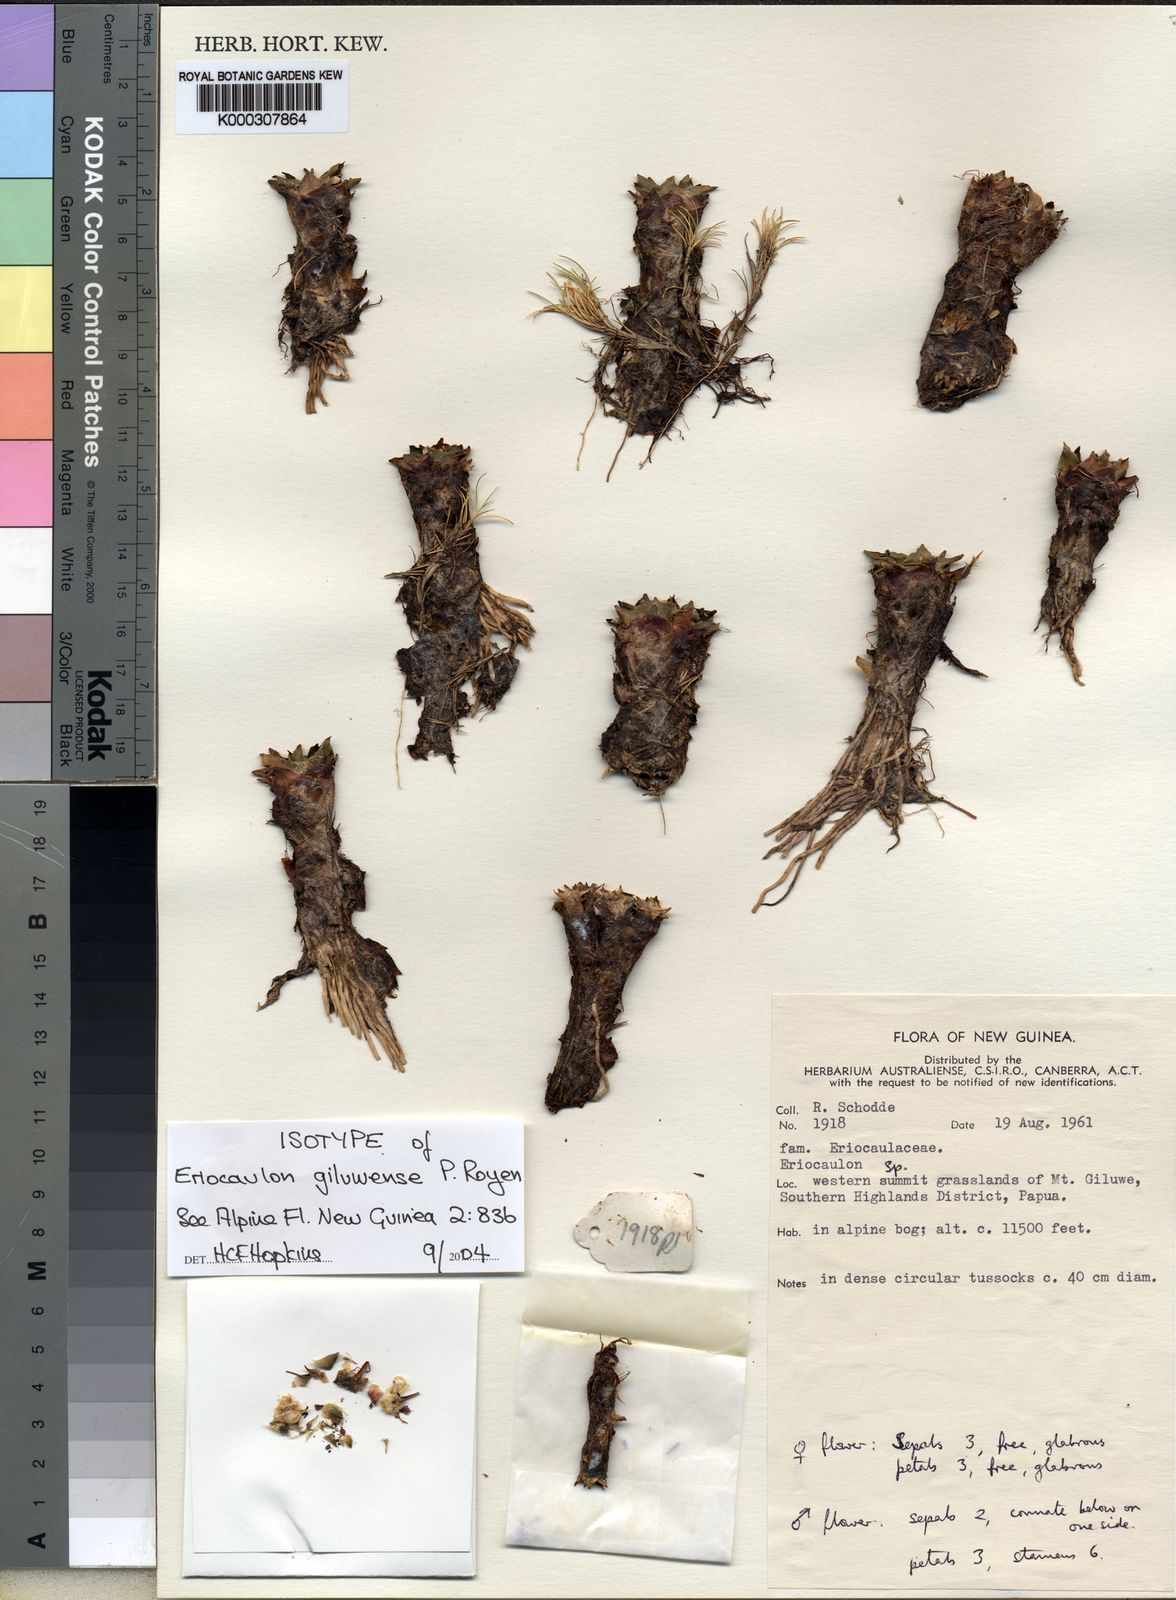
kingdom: Plantae
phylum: Tracheophyta
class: Liliopsida
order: Poales
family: Eriocaulaceae
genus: Eriocaulon
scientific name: Eriocaulon giluwense
